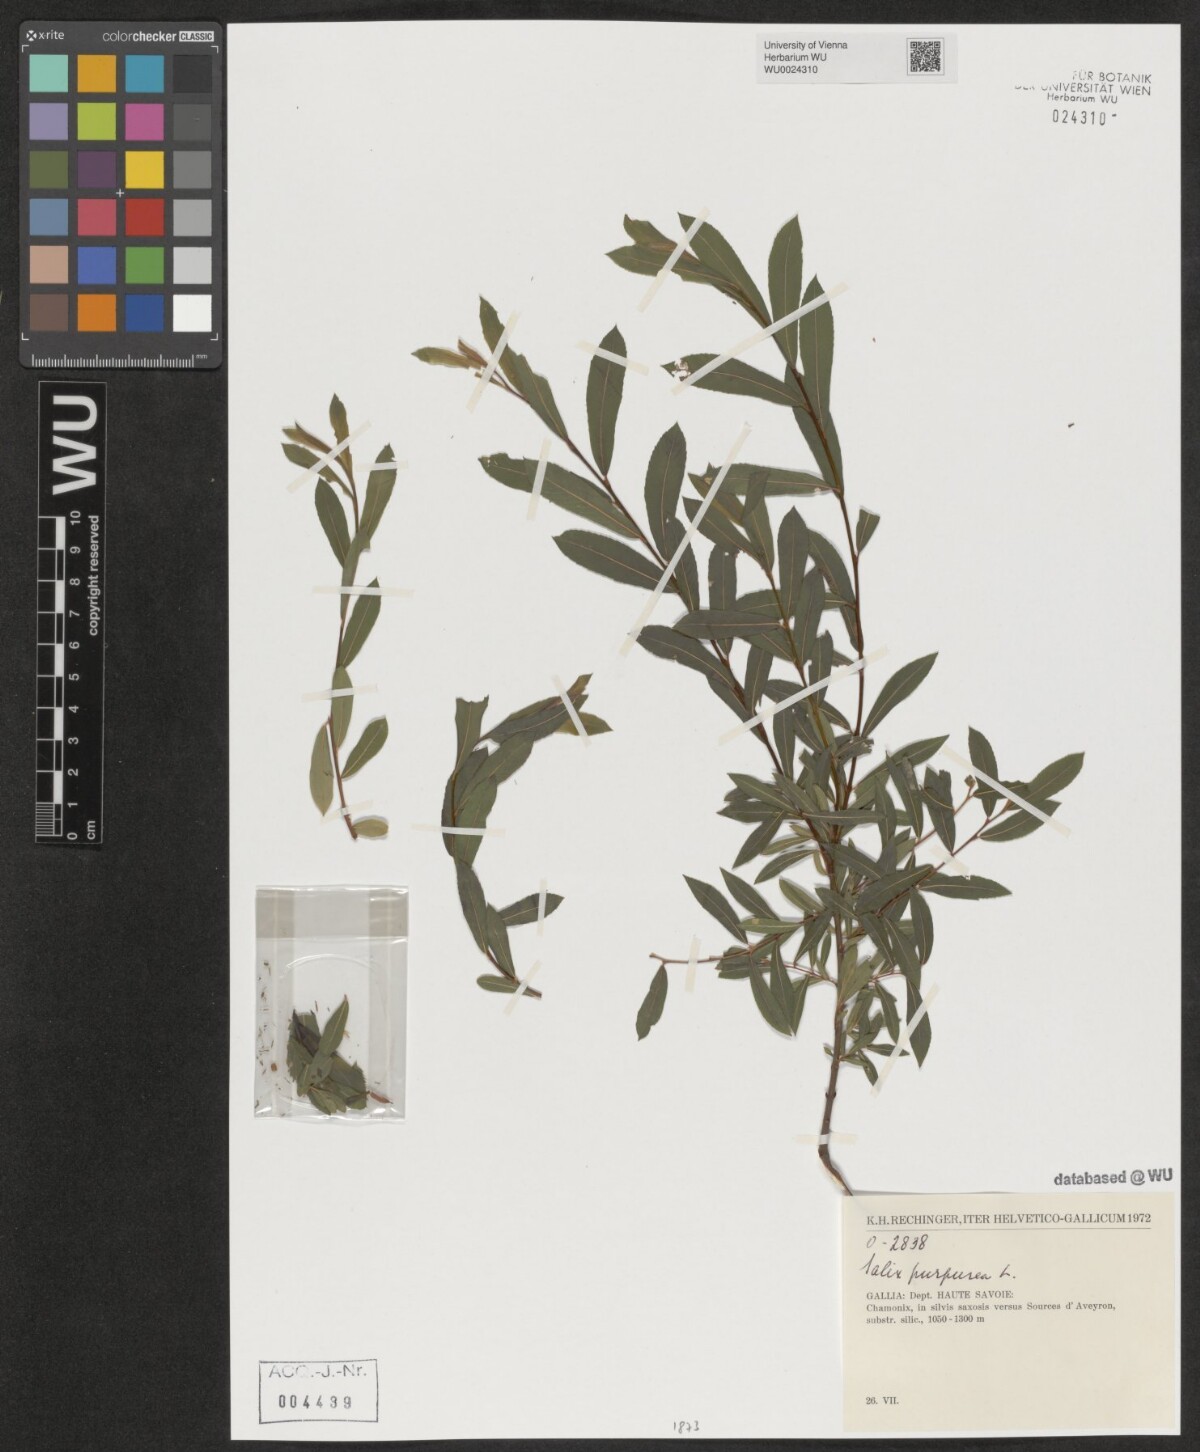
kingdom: Plantae
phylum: Tracheophyta
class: Magnoliopsida
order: Malpighiales
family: Salicaceae
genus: Salix
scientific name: Salix purpurea
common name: Purple willow
